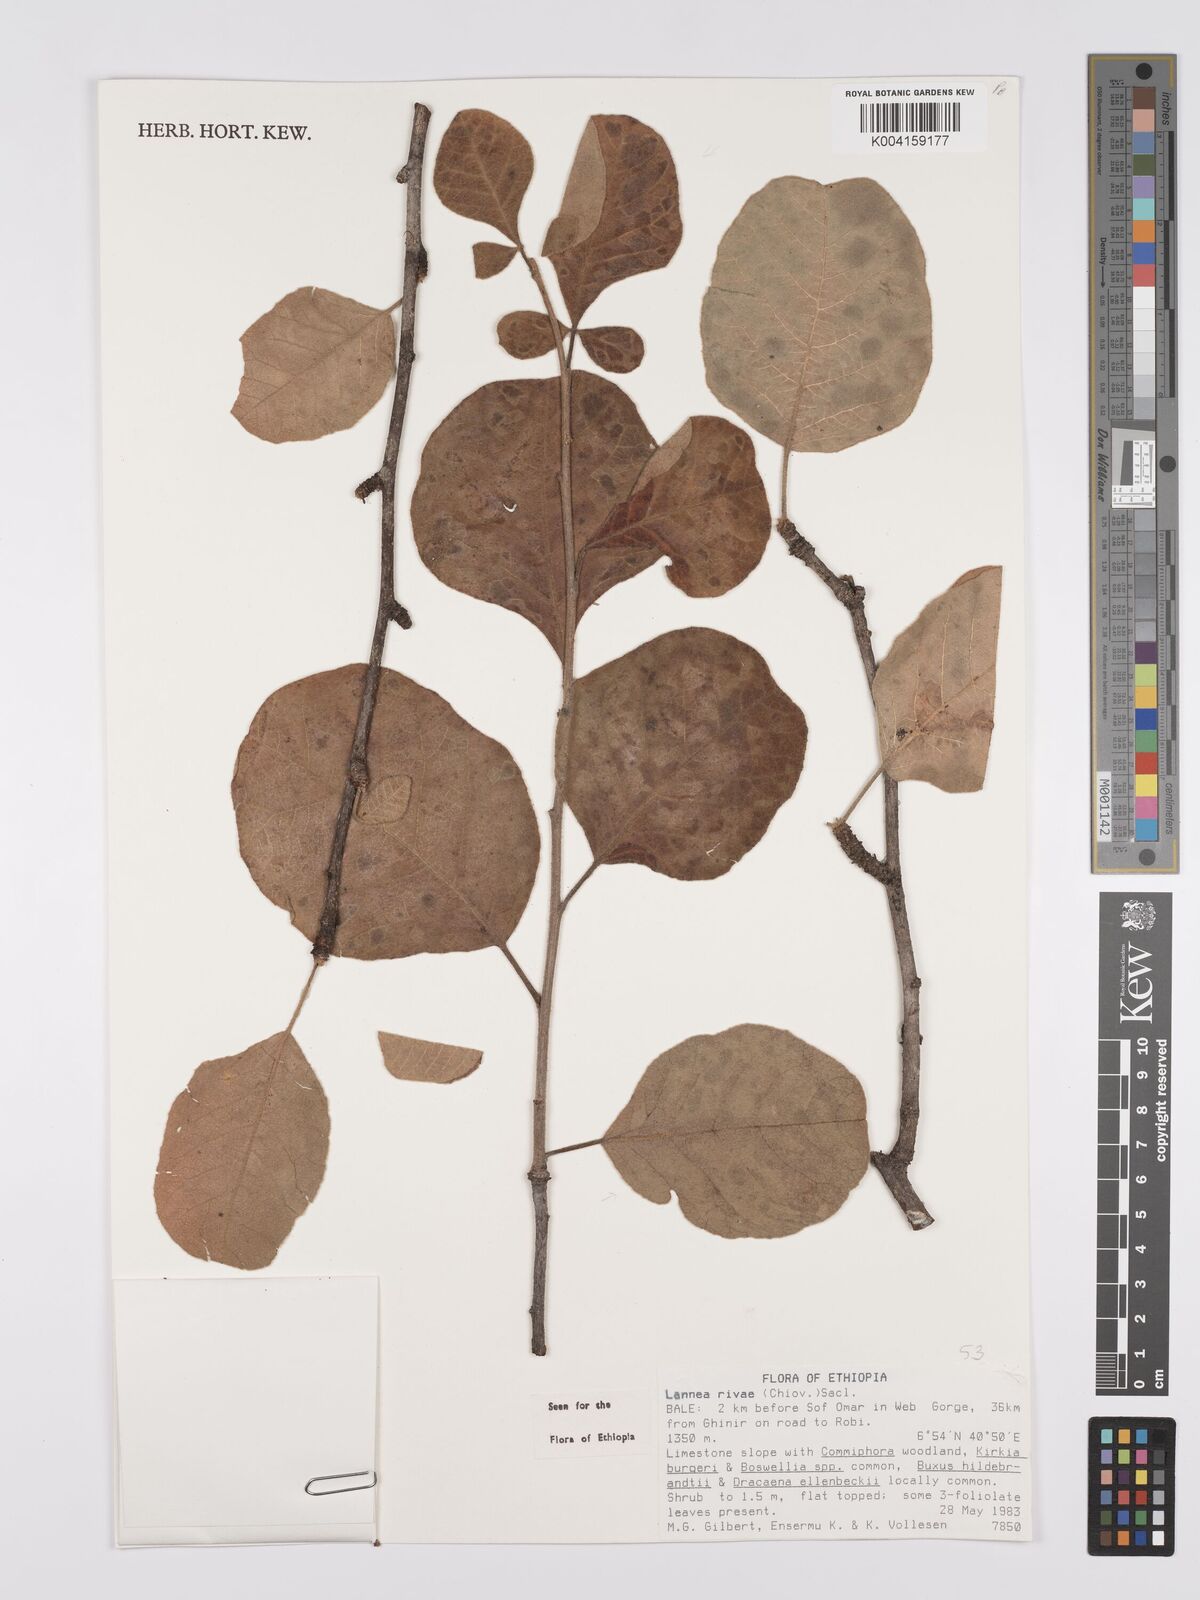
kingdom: Plantae
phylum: Tracheophyta
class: Magnoliopsida
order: Sapindales
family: Anacardiaceae
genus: Lannea
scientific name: Lannea rivae
